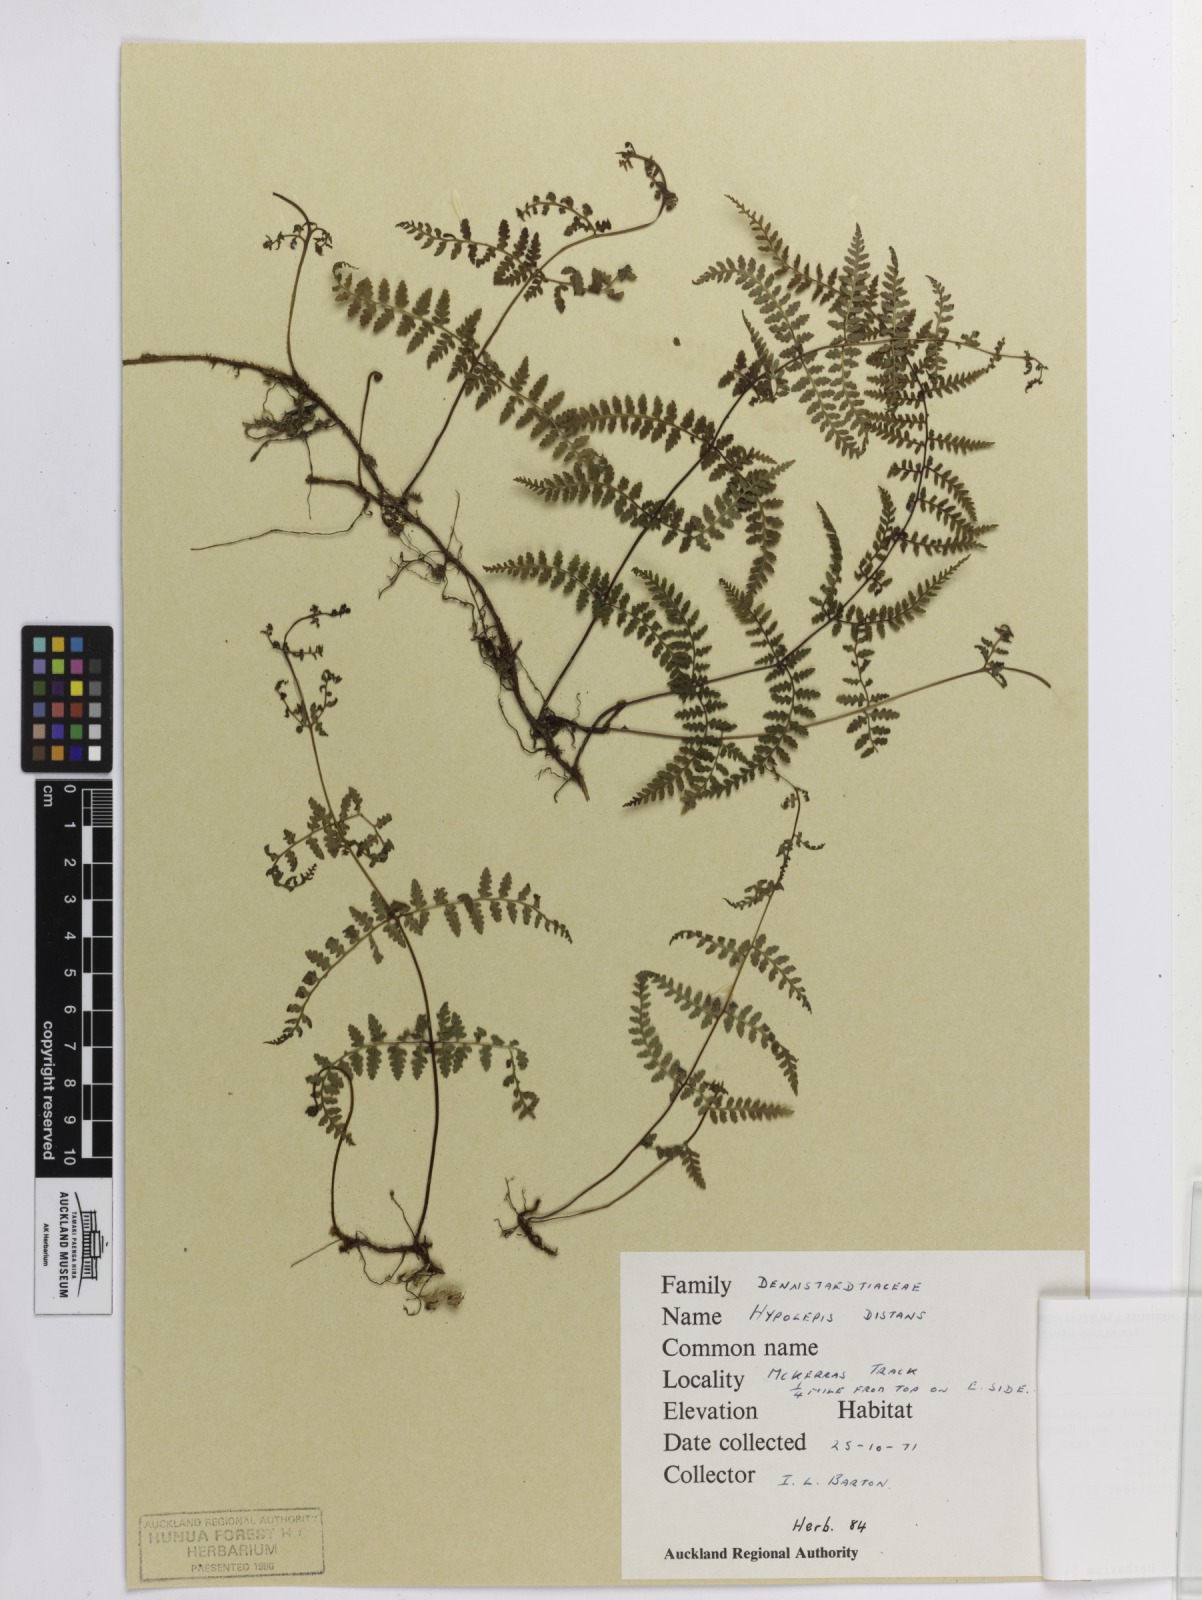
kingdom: Plantae
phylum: Tracheophyta
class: Polypodiopsida
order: Polypodiales
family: Dennstaedtiaceae
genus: Hiya
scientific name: Hiya distans
